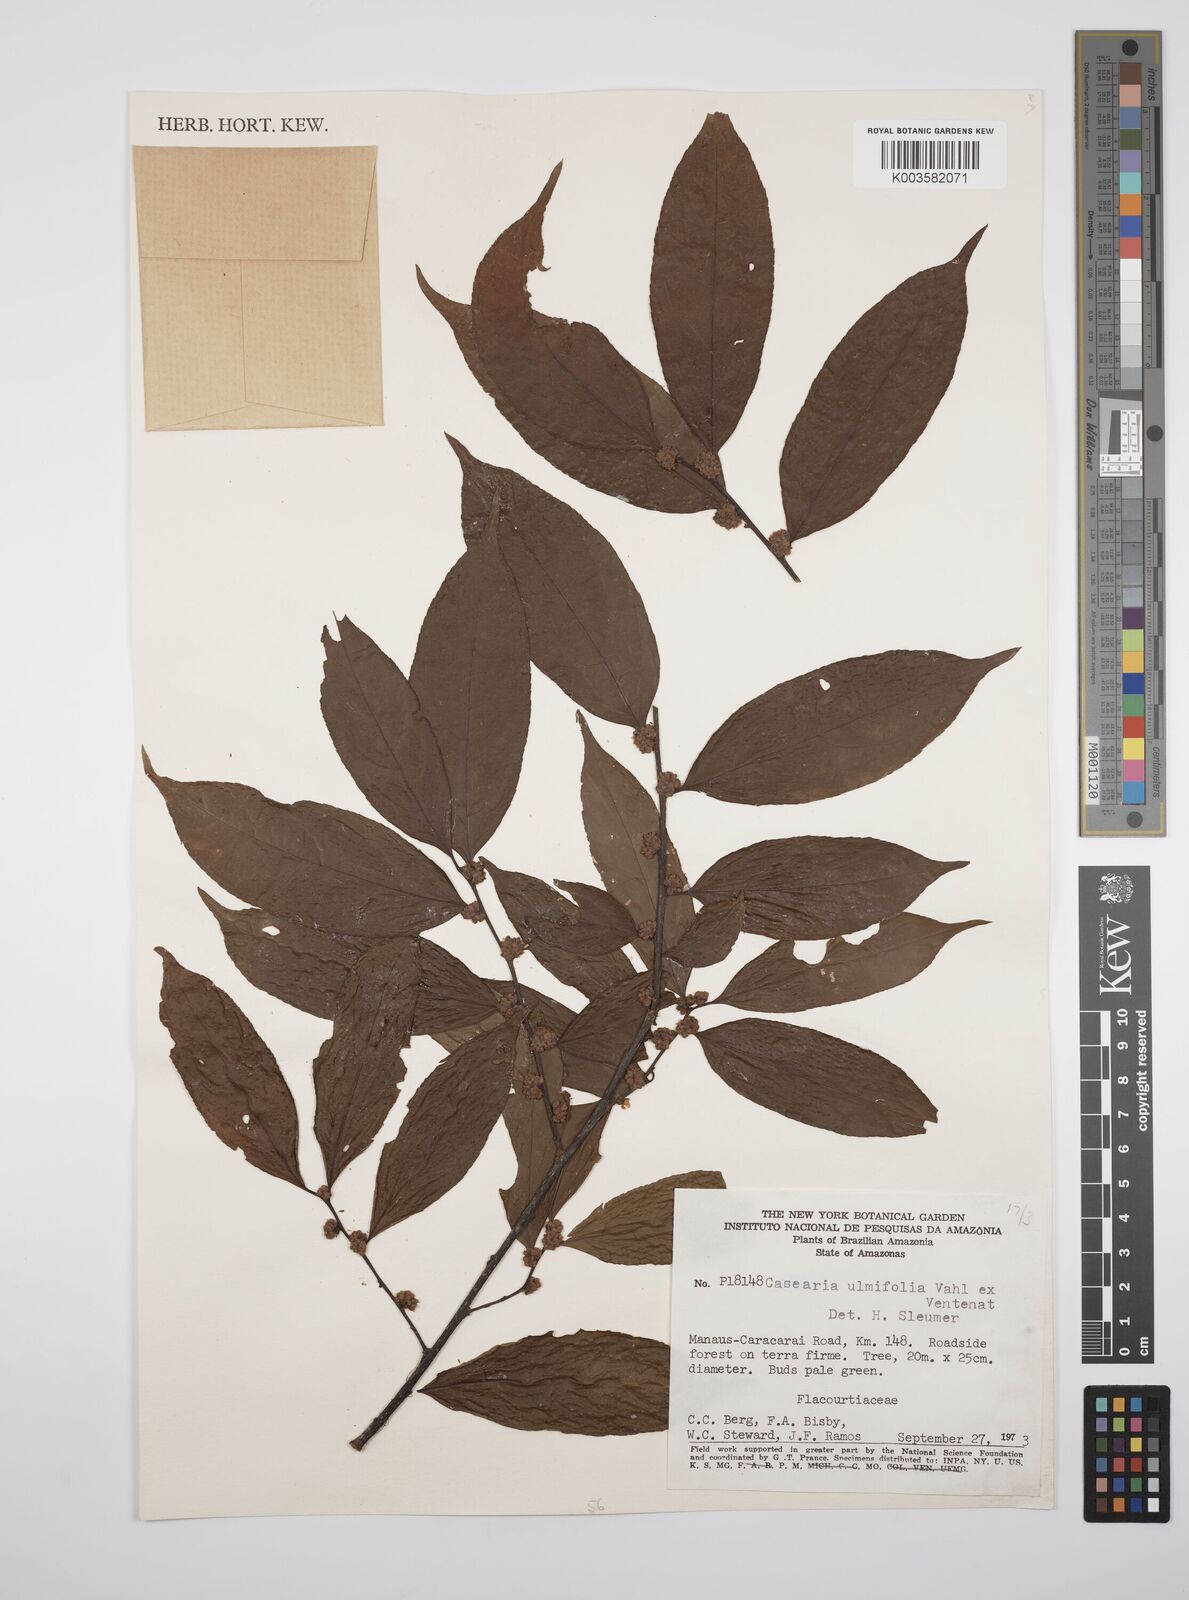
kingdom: Plantae
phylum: Tracheophyta
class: Magnoliopsida
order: Malpighiales
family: Salicaceae
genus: Casearia
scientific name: Casearia ulmifolia
